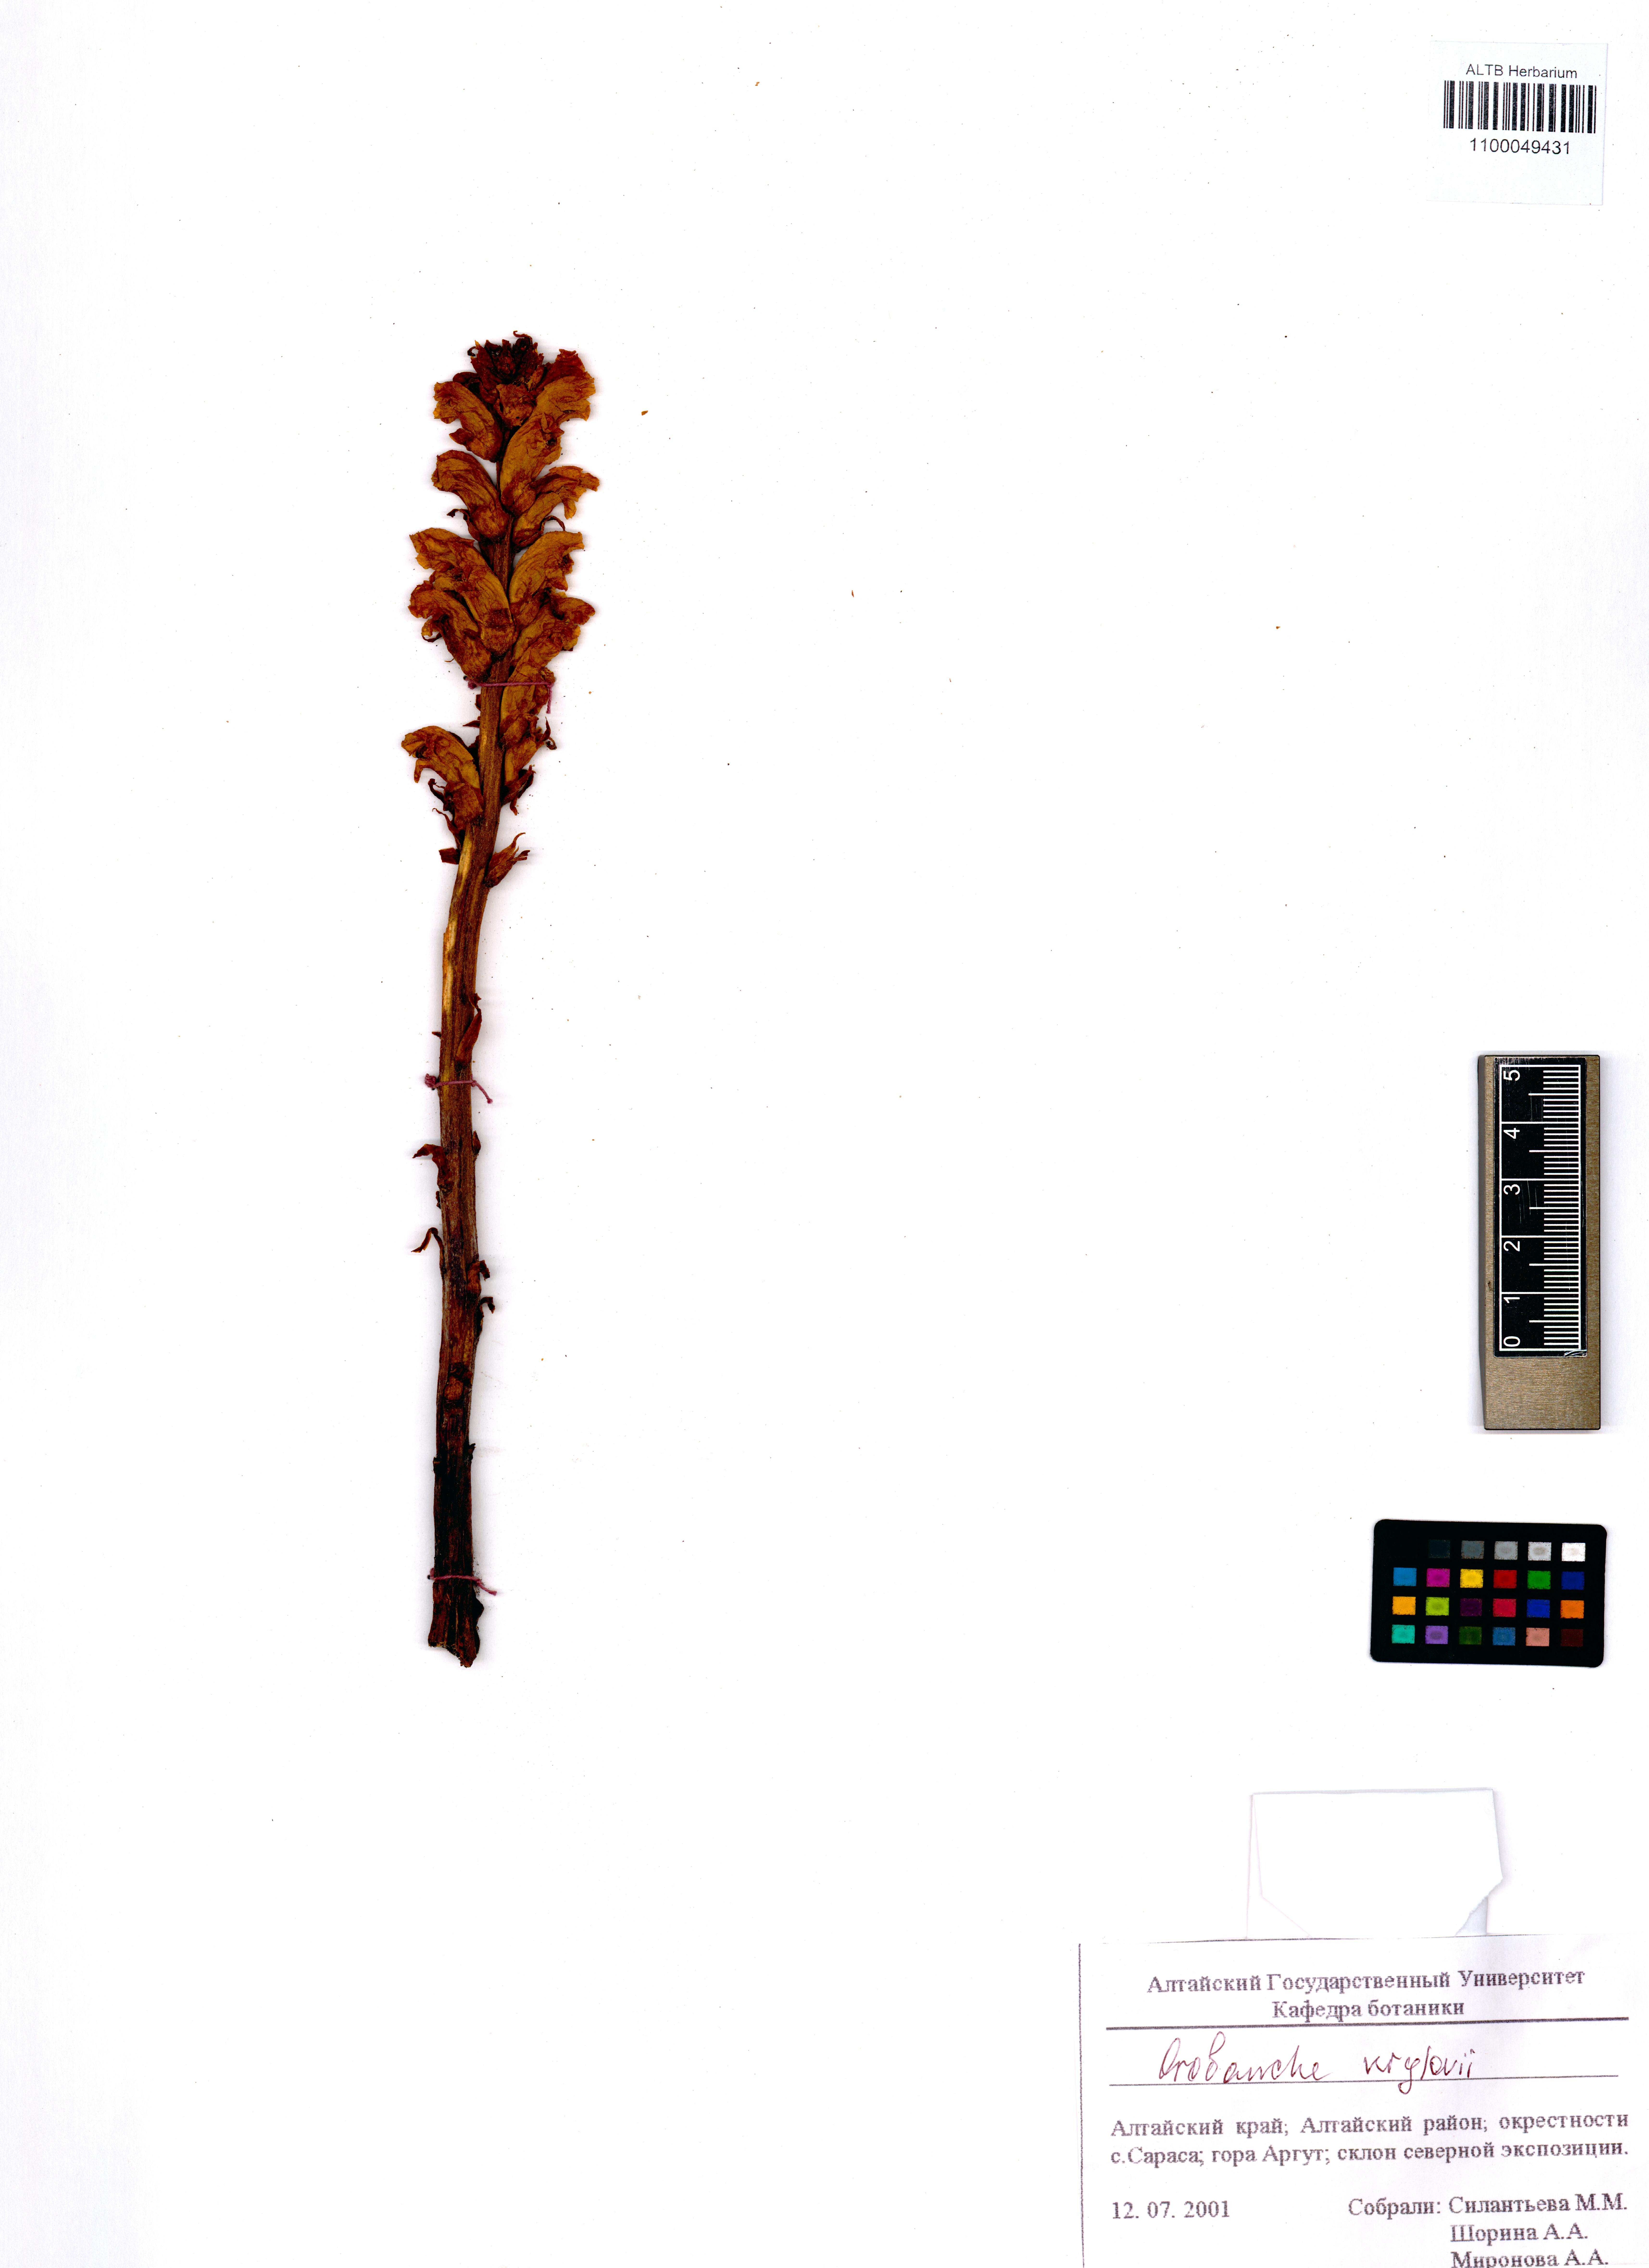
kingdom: Plantae
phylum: Tracheophyta
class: Magnoliopsida
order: Lamiales
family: Orobanchaceae
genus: Orobanche
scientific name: Orobanche krylowii
